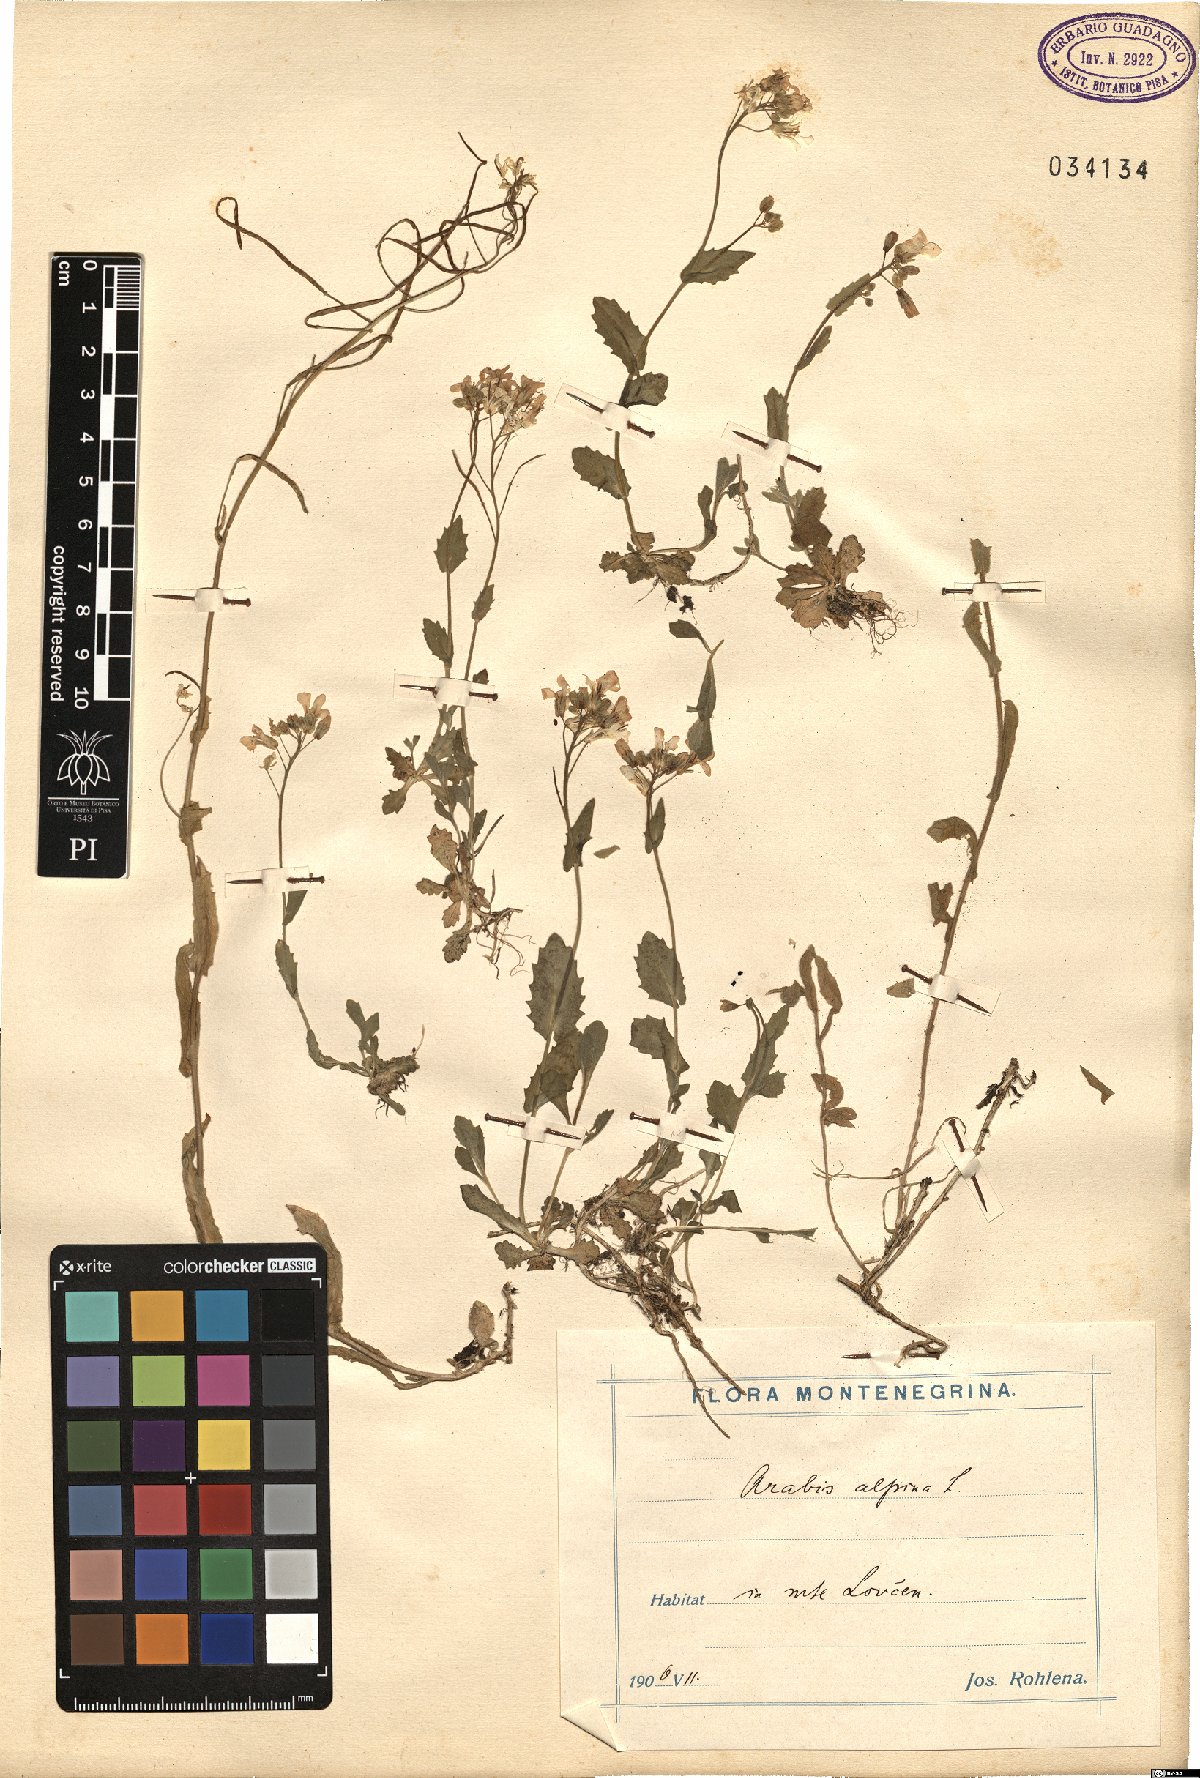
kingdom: Plantae
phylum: Tracheophyta
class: Magnoliopsida
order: Brassicales
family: Brassicaceae
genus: Arabis
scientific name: Arabis alpina
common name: Alpine rock-cress
